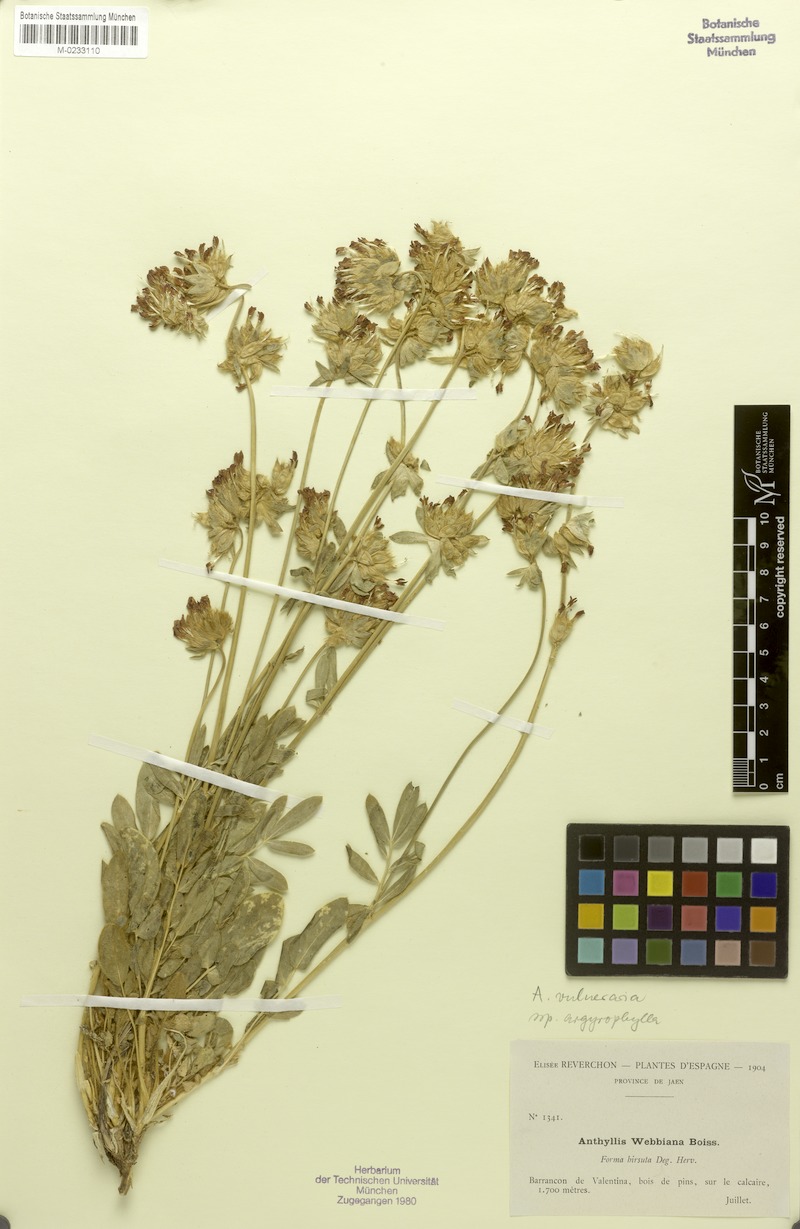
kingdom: Plantae
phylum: Tracheophyta
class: Magnoliopsida
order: Fabales
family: Fabaceae
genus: Anthyllis
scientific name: Anthyllis vulneraria
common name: Kidney vetch
